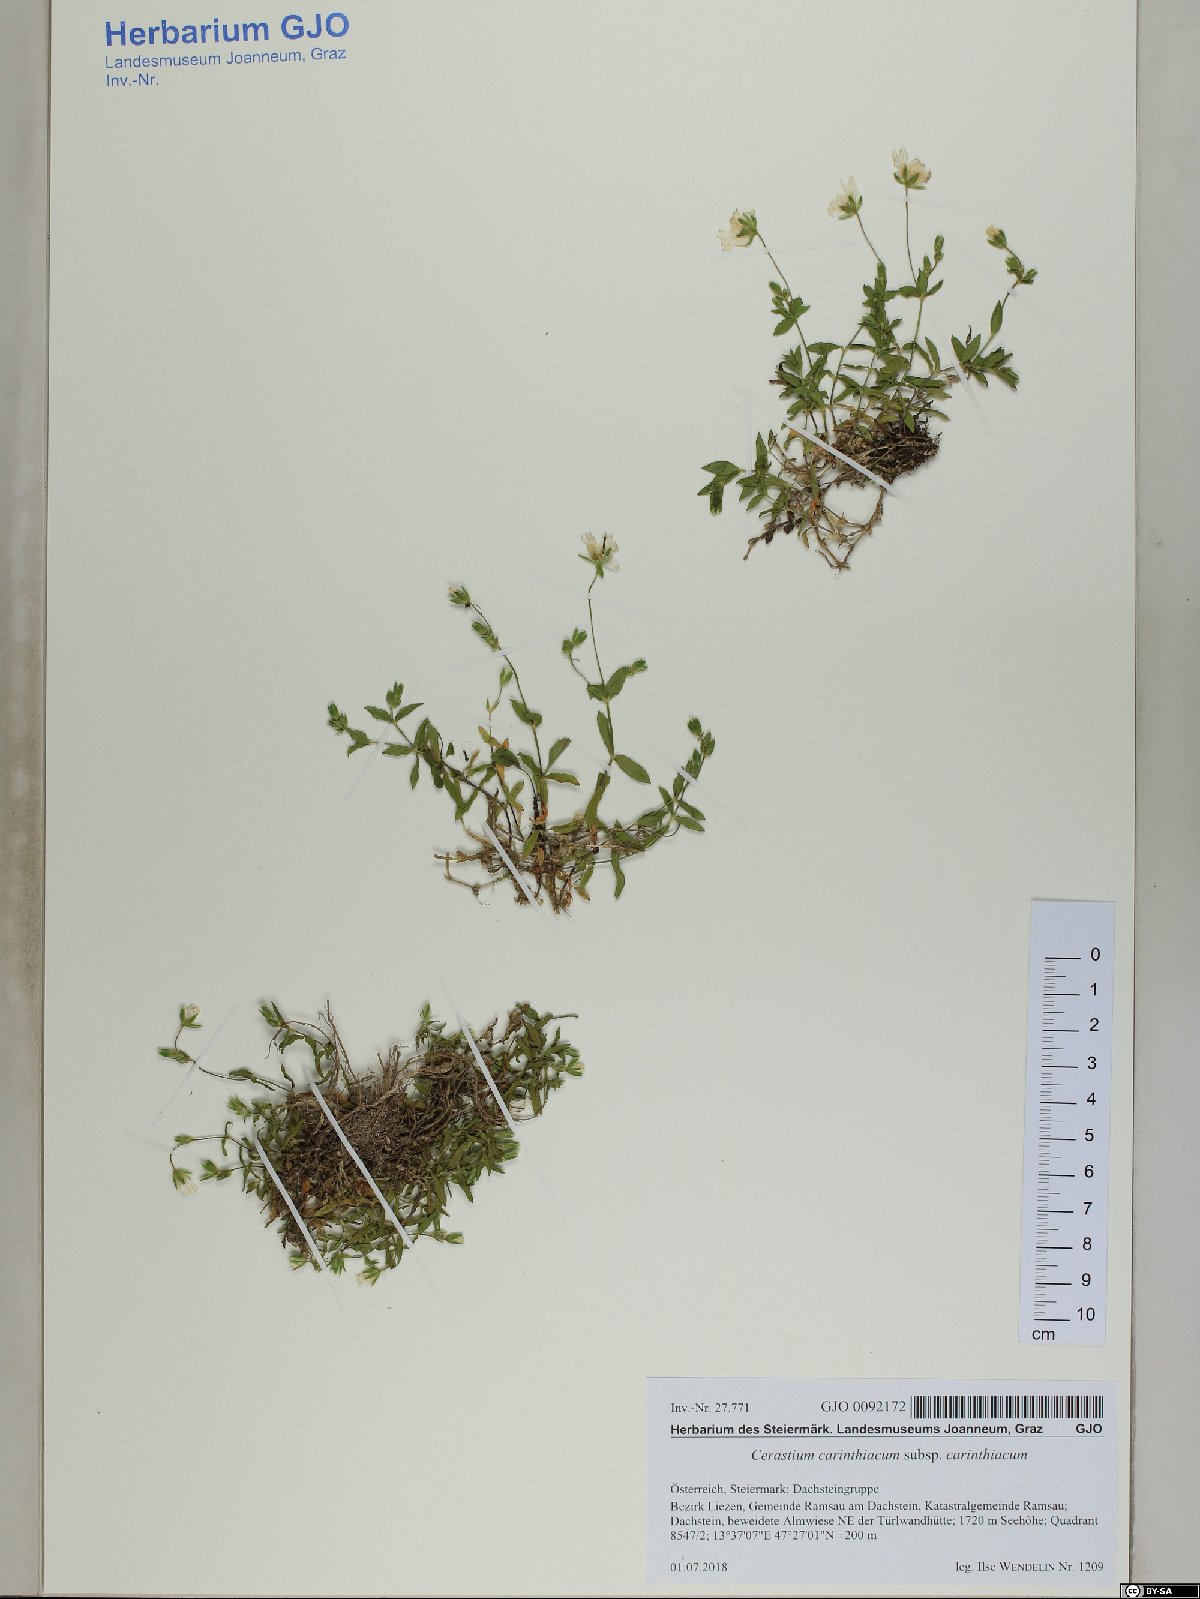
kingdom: Plantae
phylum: Tracheophyta
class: Magnoliopsida
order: Caryophyllales
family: Caryophyllaceae
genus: Cerastium
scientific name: Cerastium carinthiacum
